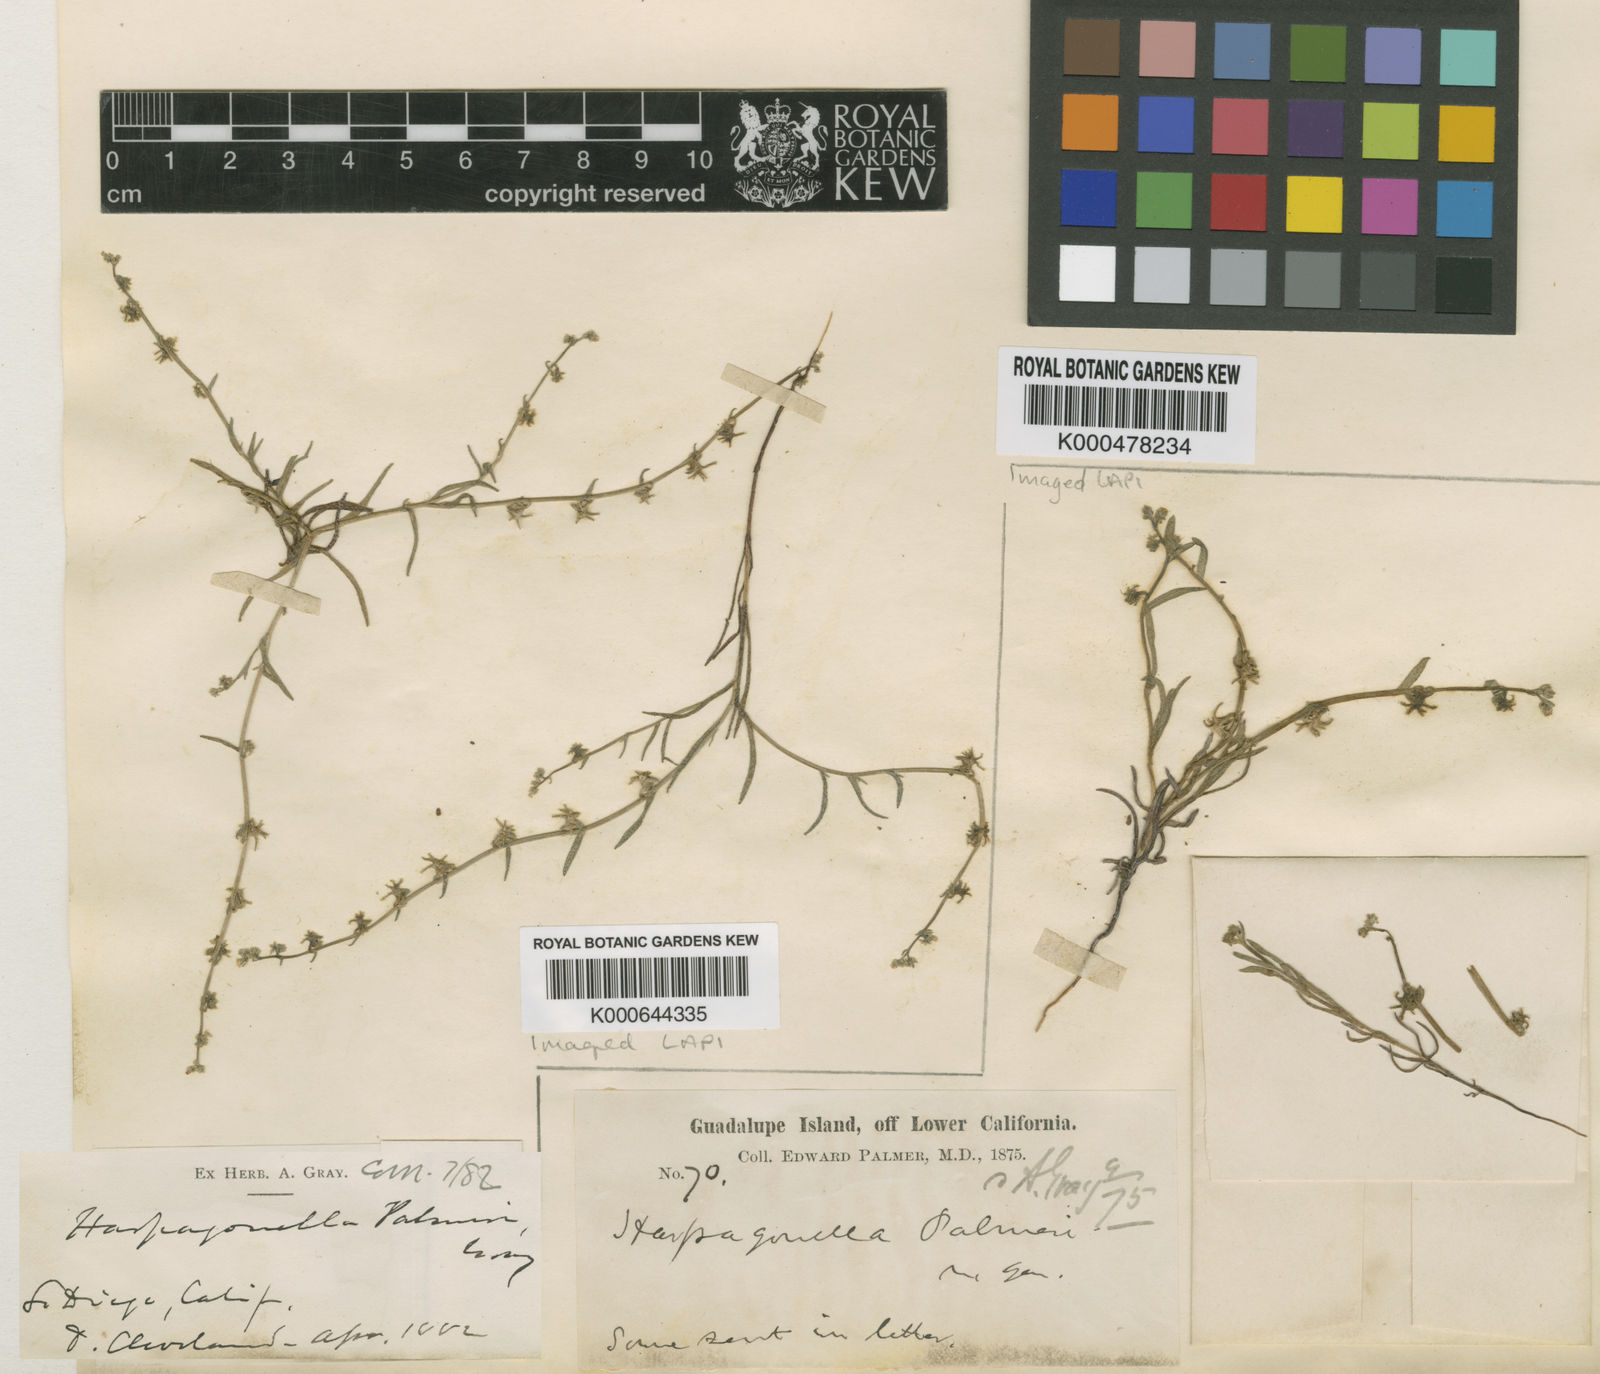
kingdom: Plantae
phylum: Tracheophyta
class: Magnoliopsida
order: Boraginales
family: Boraginaceae
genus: Harpagonella
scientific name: Harpagonella palmeri
